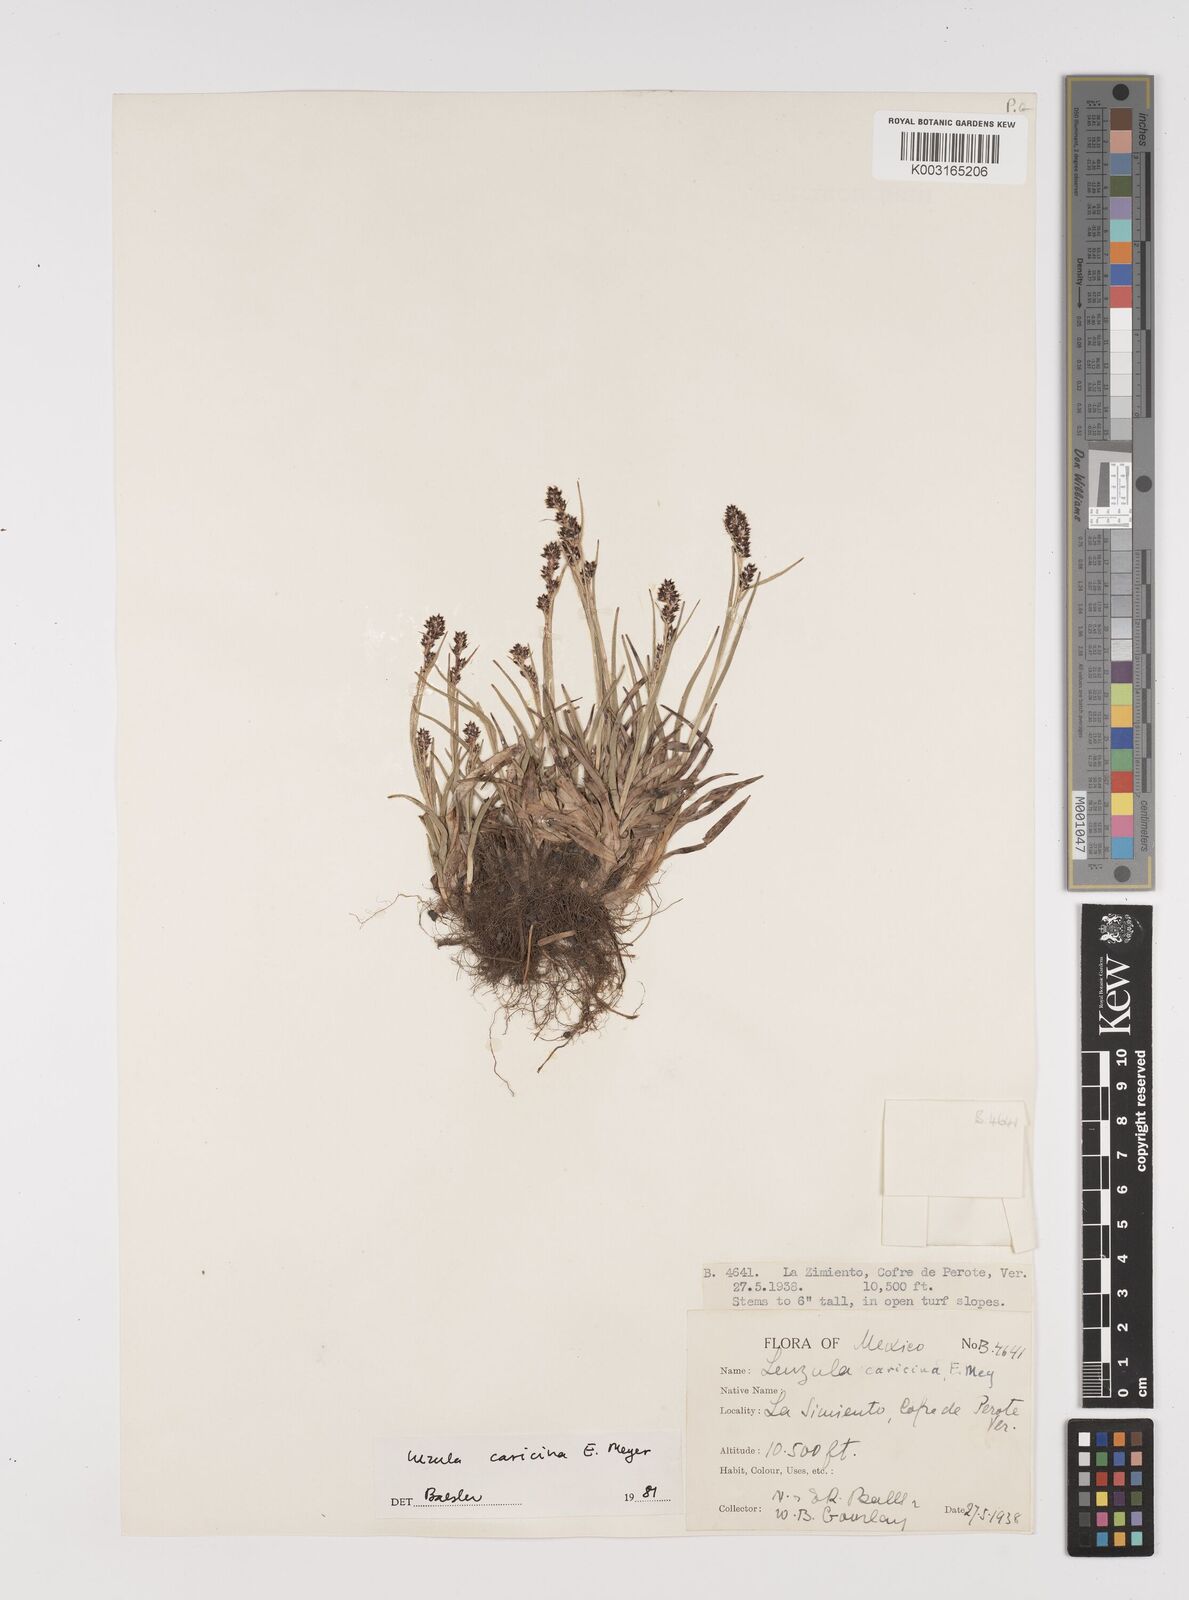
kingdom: Plantae
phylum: Tracheophyta
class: Liliopsida
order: Poales
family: Juncaceae
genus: Luzula
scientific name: Luzula caricina
